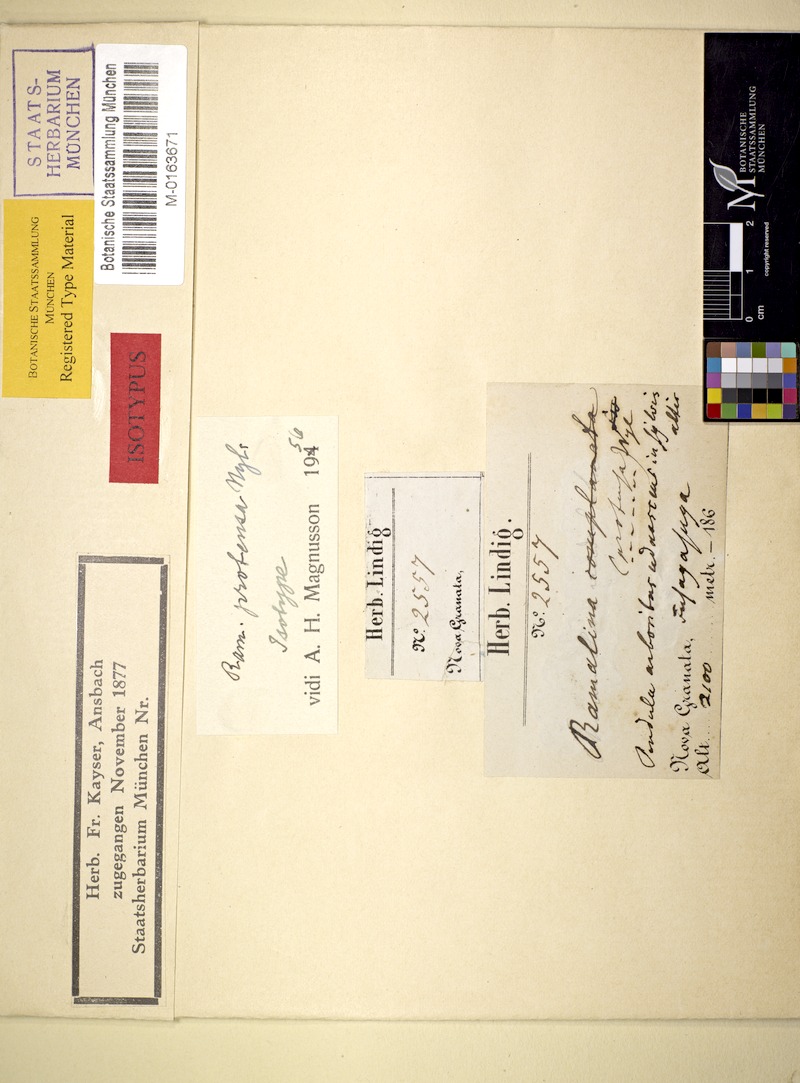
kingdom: Fungi
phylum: Ascomycota
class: Lecanoromycetes
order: Lecanorales
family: Ramalinaceae
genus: Ramalina
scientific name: Ramalina protensa
